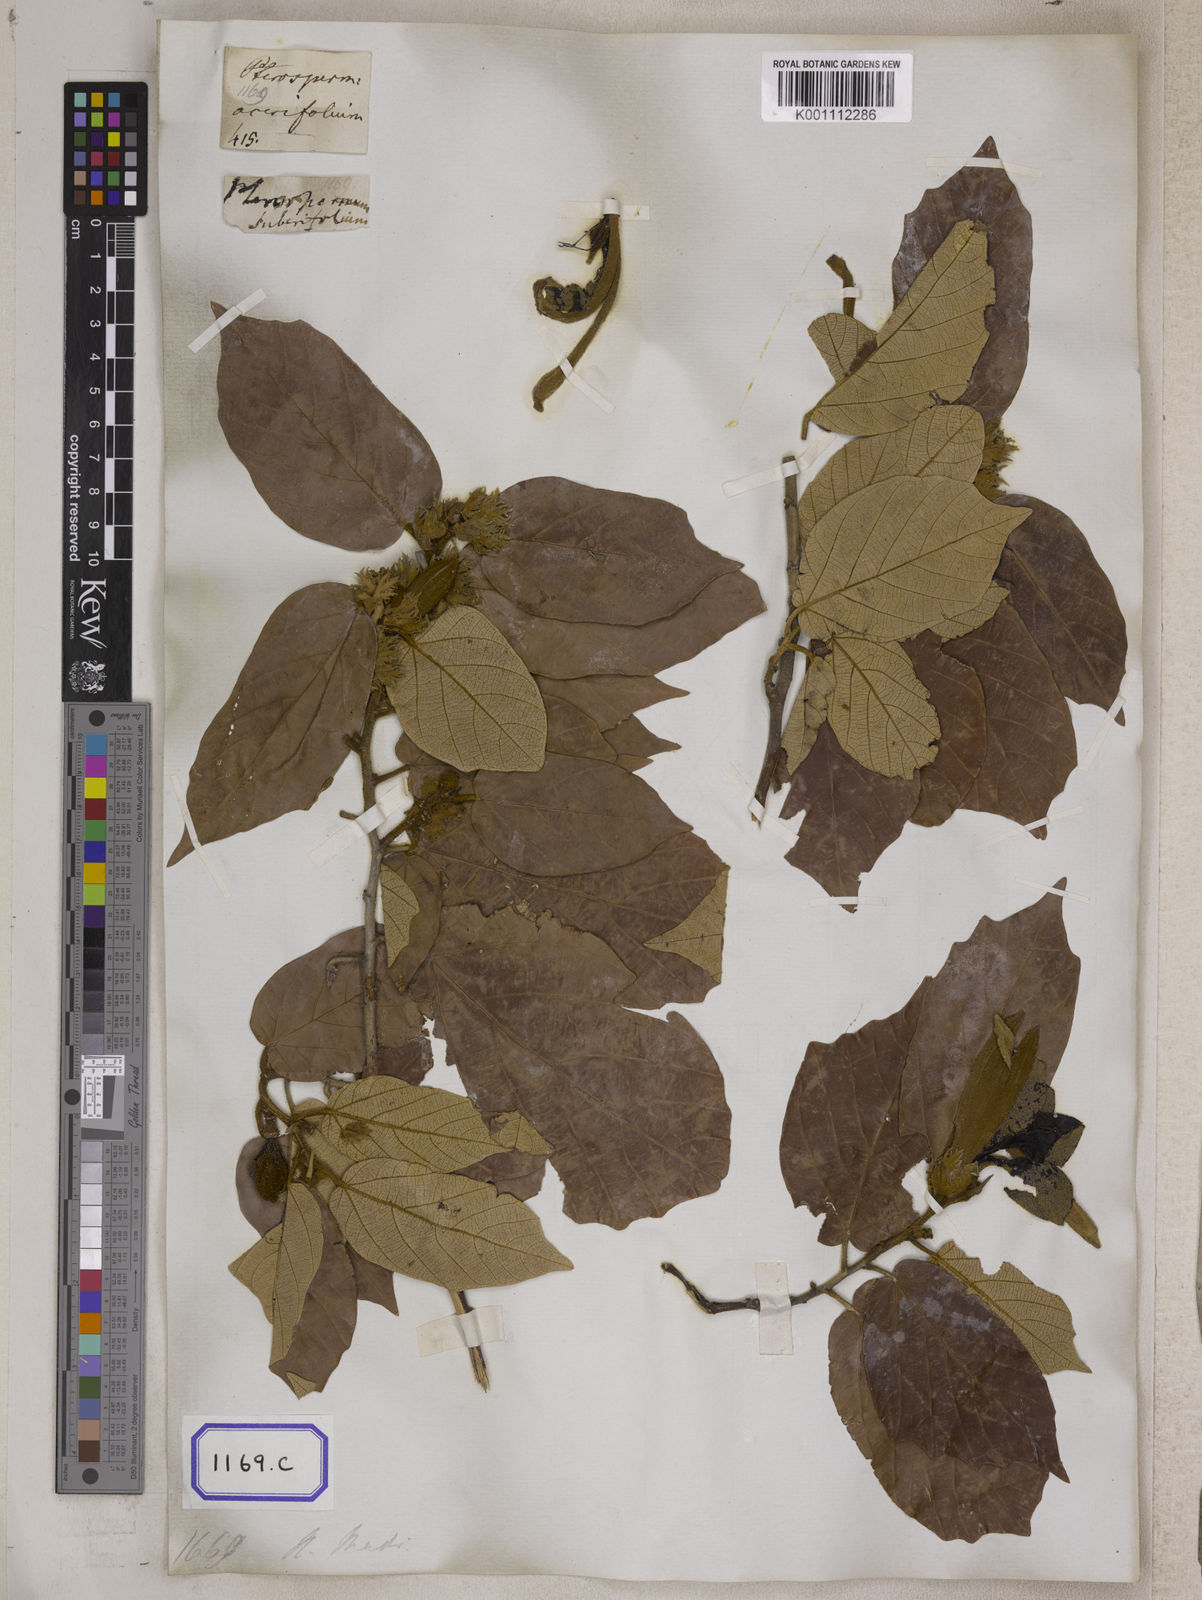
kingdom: Plantae
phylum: Tracheophyta
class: Magnoliopsida
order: Malvales
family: Malvaceae
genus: Pterospermum
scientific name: Pterospermum
